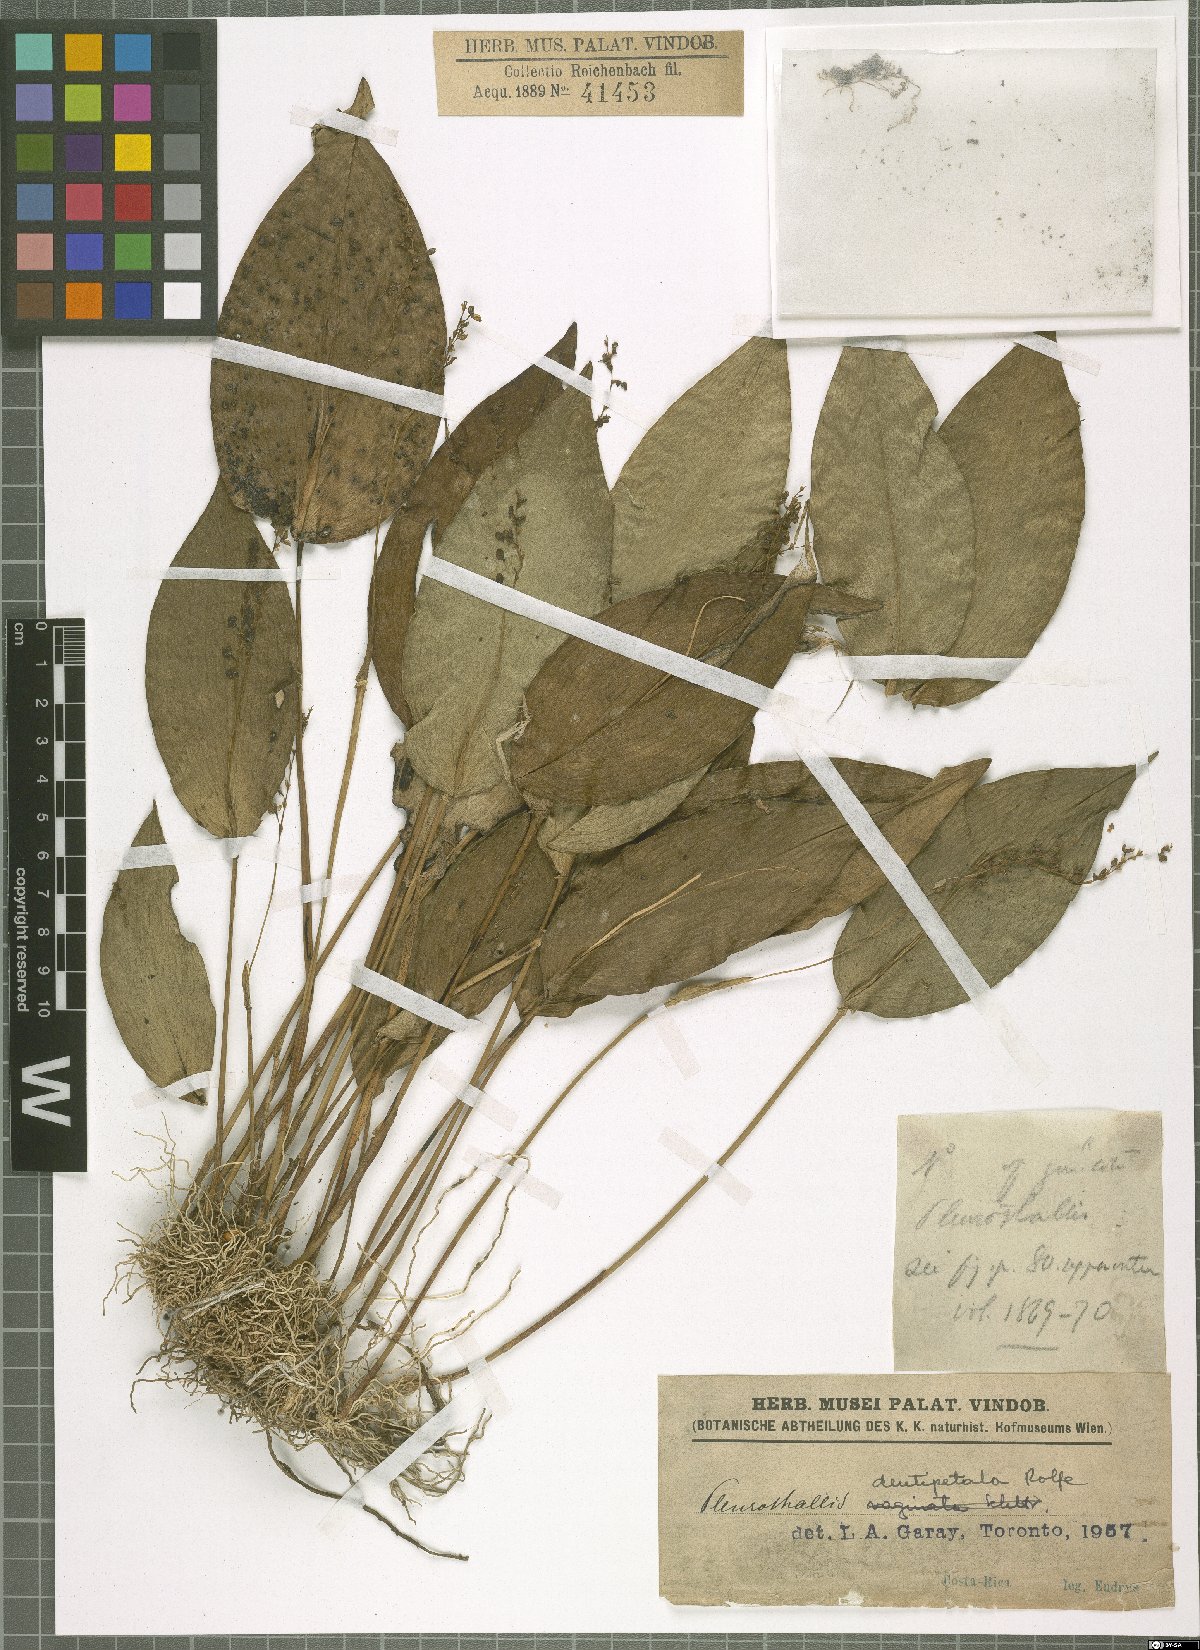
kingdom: Plantae
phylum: Tracheophyta
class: Liliopsida
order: Asparagales
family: Orchidaceae
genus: Pleurothallis
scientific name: Pleurothallis dentipetala
